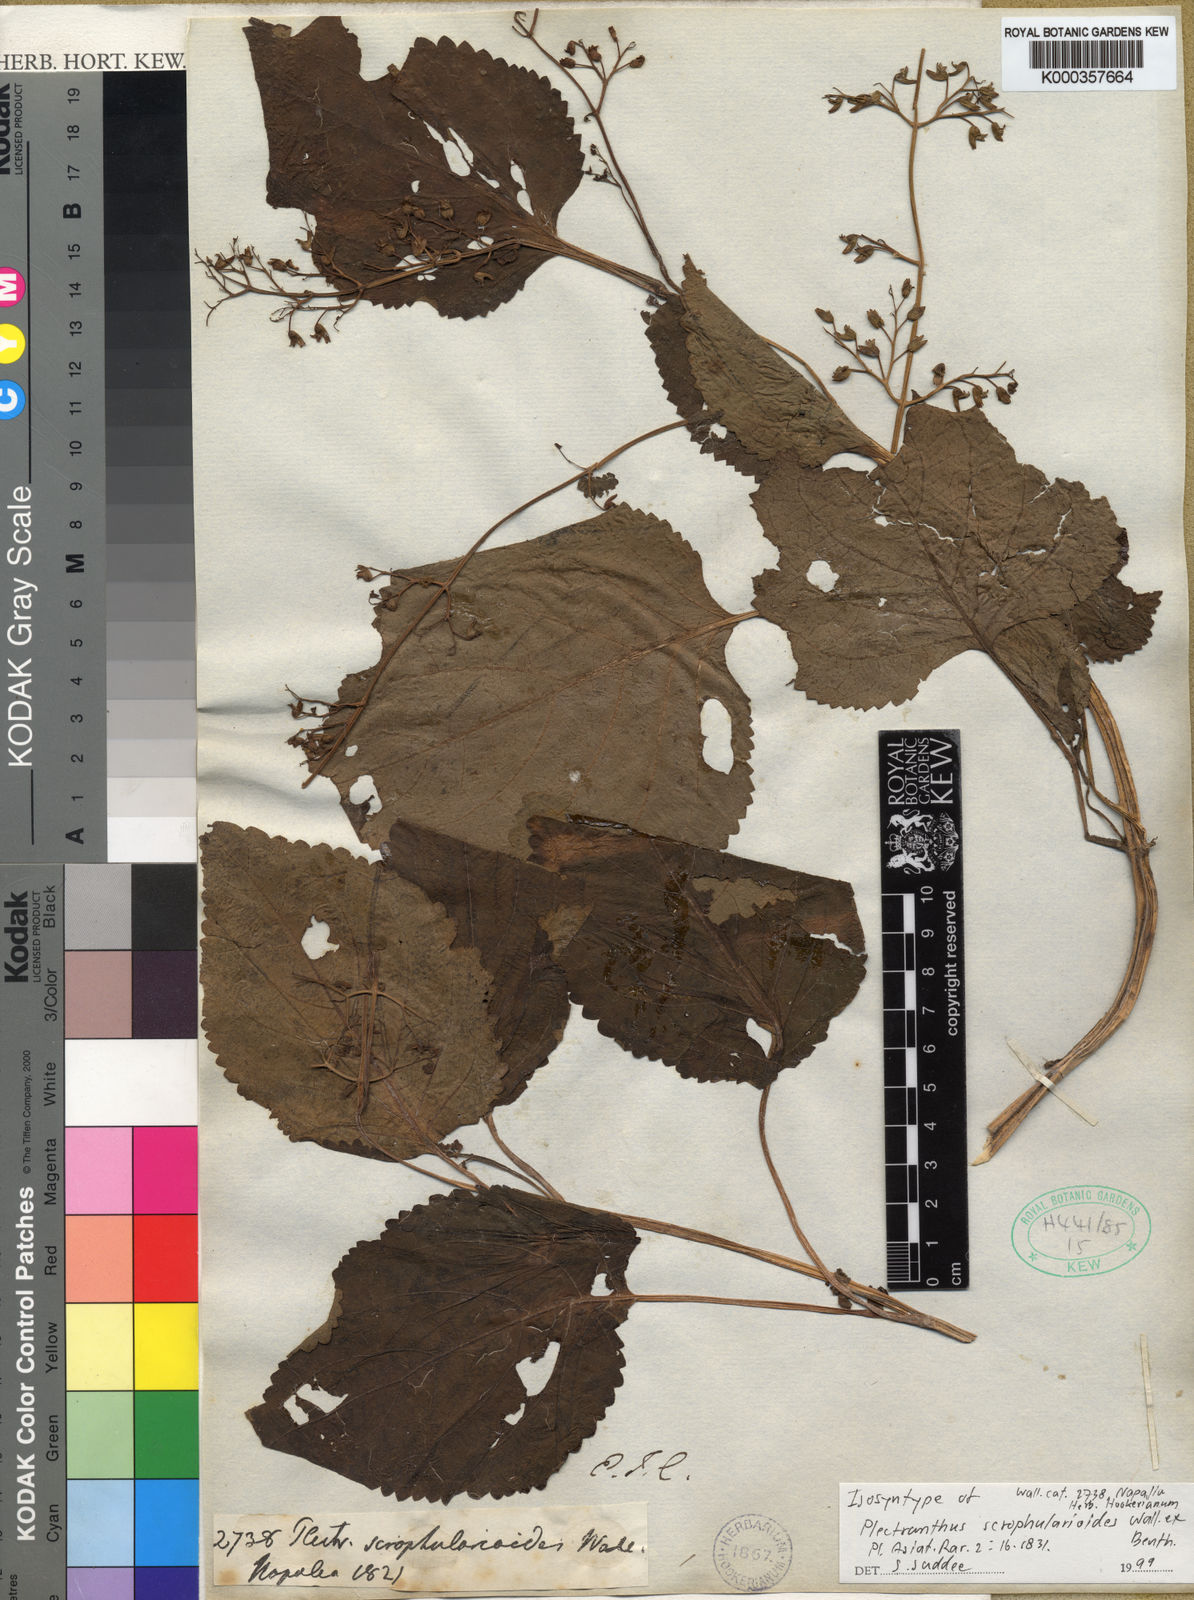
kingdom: Plantae
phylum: Tracheophyta
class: Magnoliopsida
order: Lamiales
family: Lamiaceae
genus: Plectranthus
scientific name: Plectranthus
